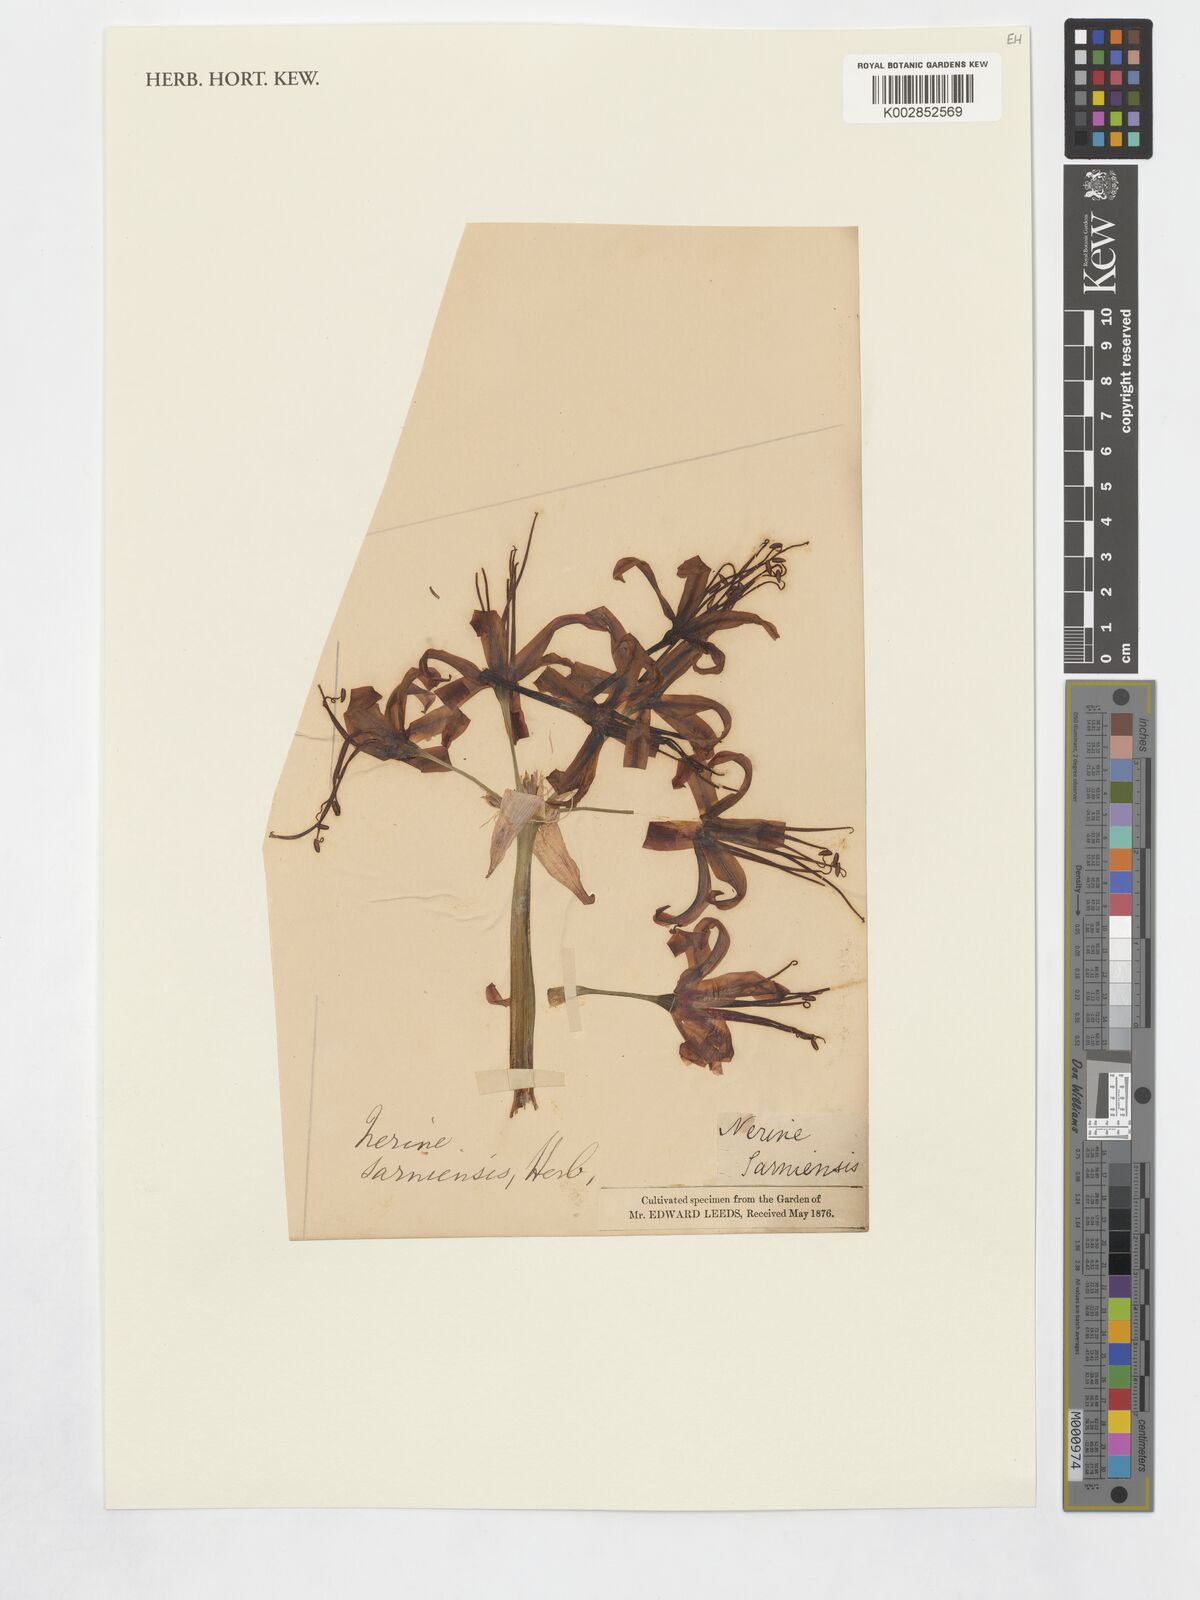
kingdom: Plantae
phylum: Tracheophyta
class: Liliopsida
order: Asparagales
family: Amaryllidaceae
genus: Nerine
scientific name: Nerine sarniensis
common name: Guernsey-lily
